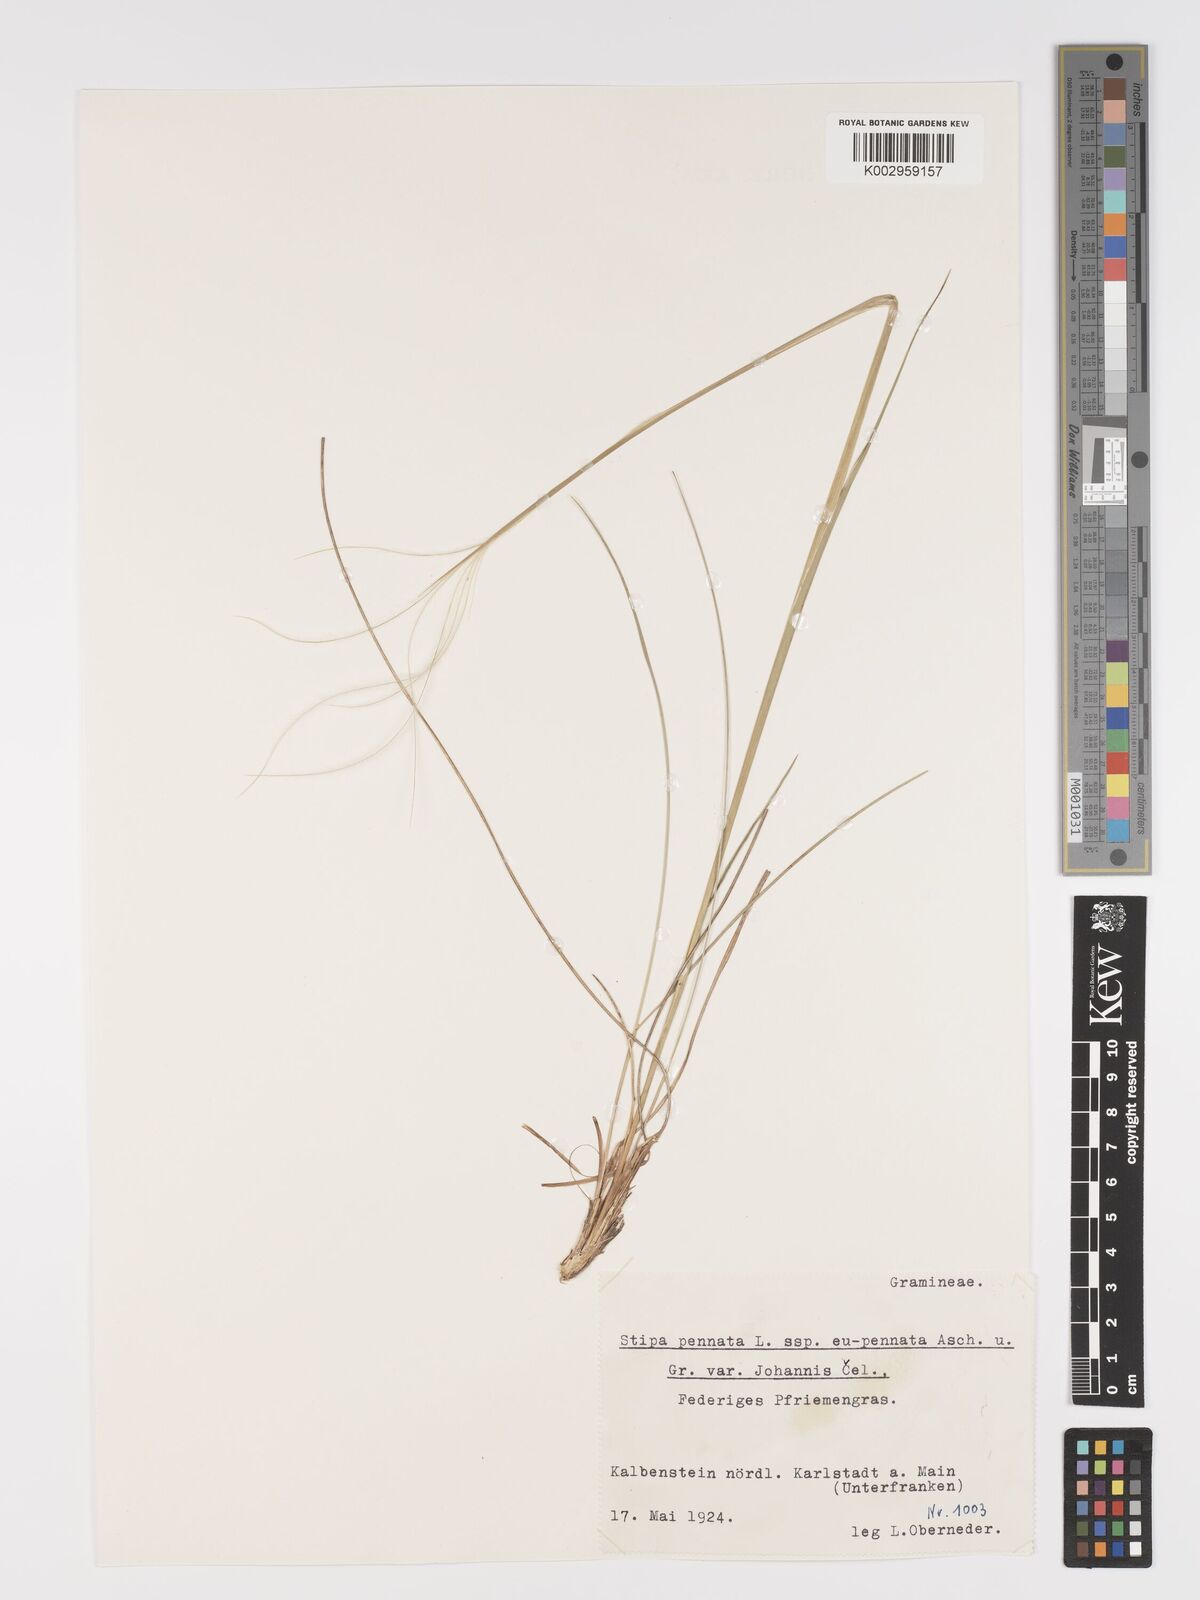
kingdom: Plantae
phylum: Tracheophyta
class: Liliopsida
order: Poales
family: Poaceae
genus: Stipa
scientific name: Stipa pennata
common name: European feather grass
